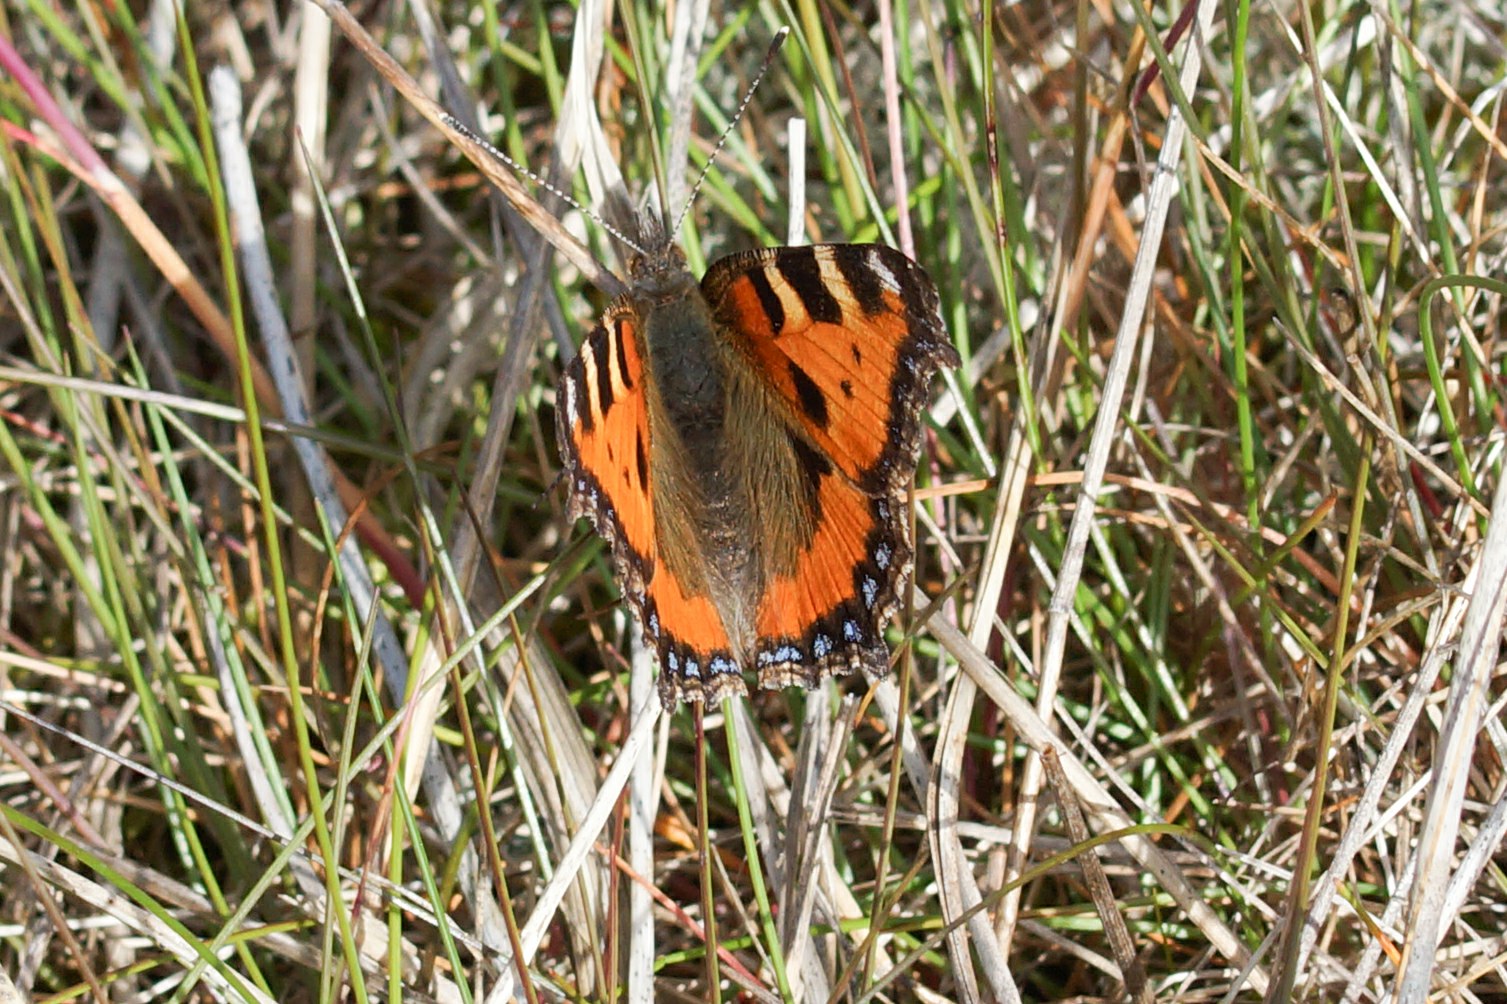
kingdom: Animalia
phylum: Arthropoda
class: Insecta
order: Lepidoptera
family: Nymphalidae
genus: Aglais
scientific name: Aglais urticae
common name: Nældens takvinge
